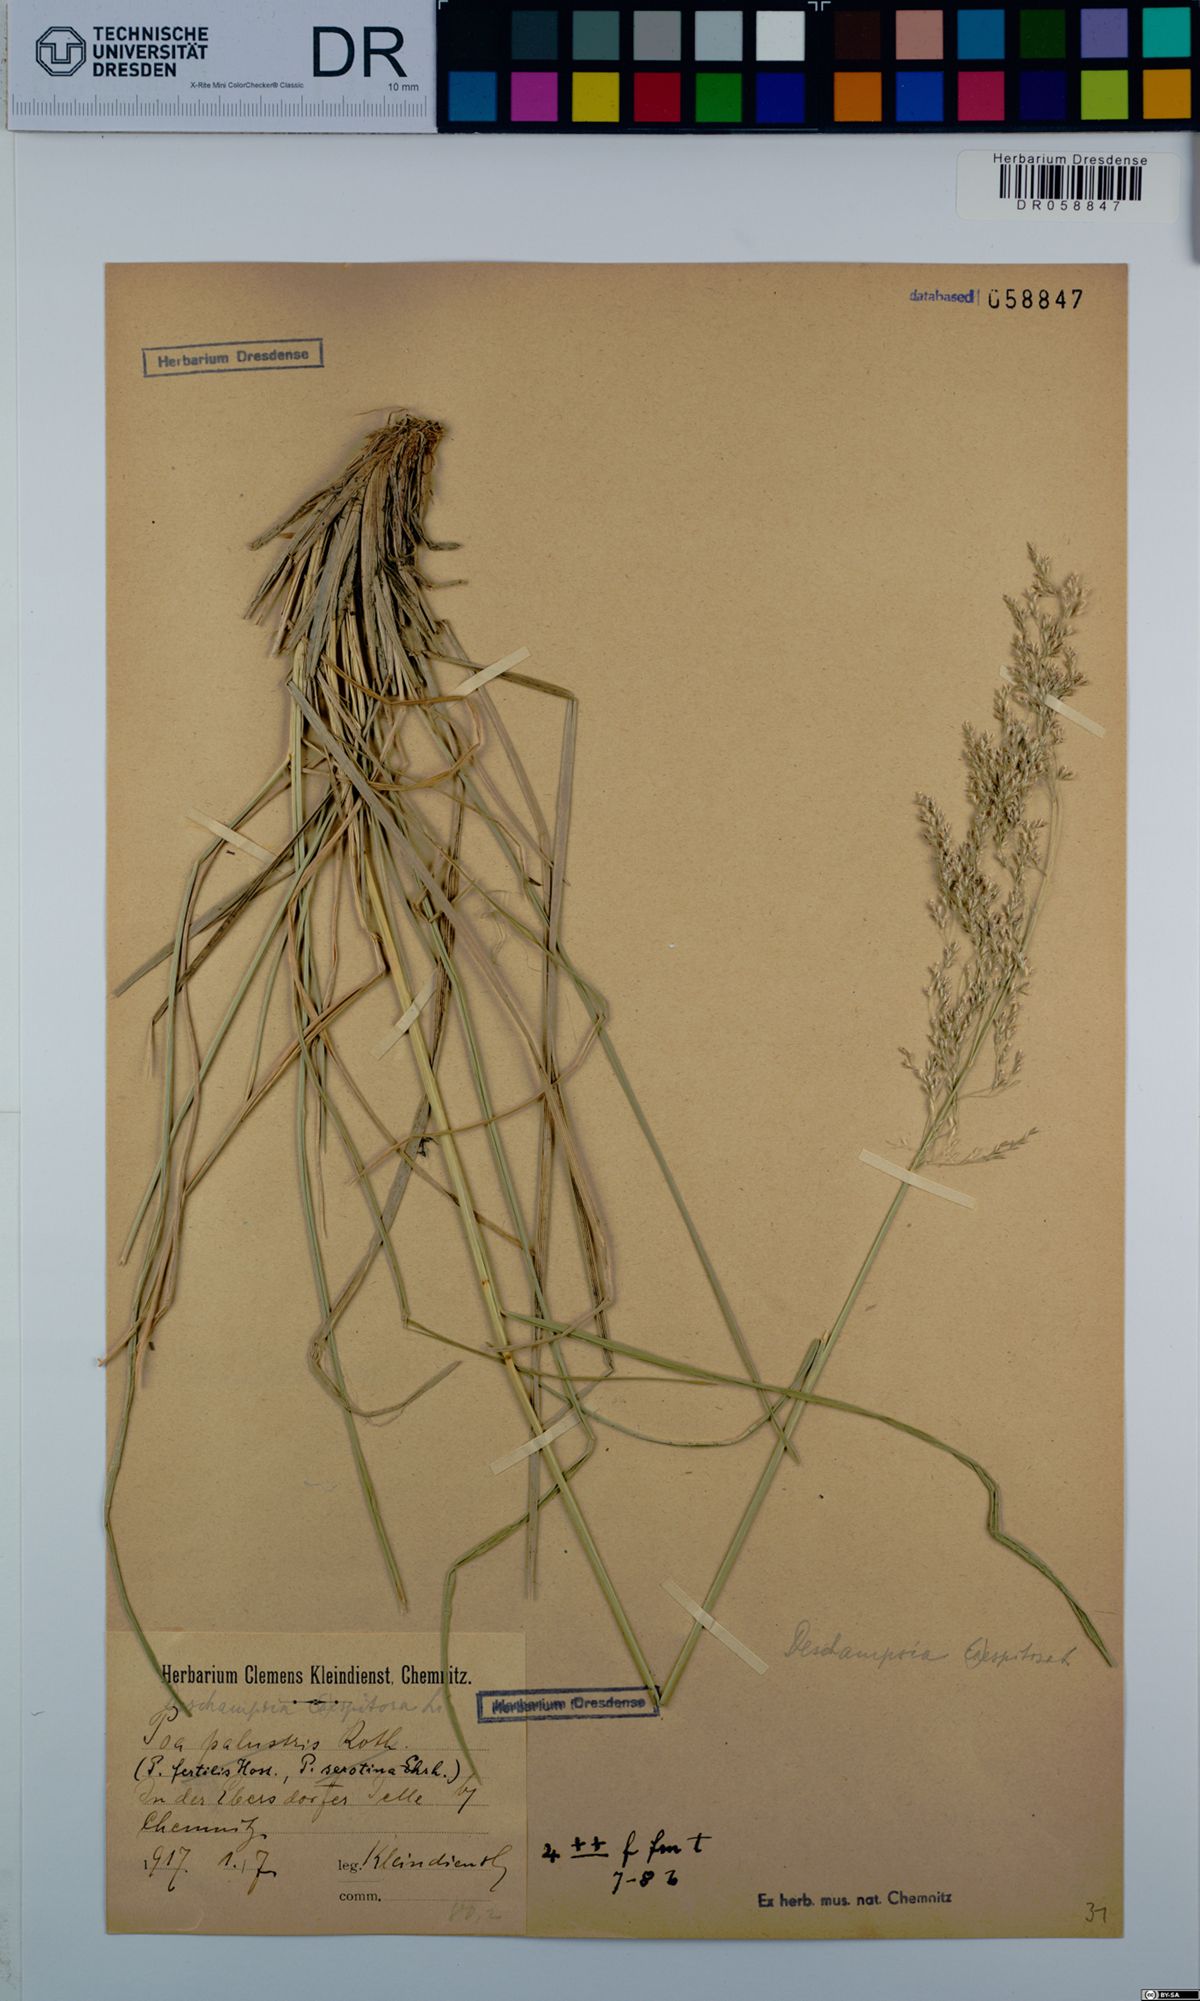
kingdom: Plantae
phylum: Tracheophyta
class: Liliopsida
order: Poales
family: Poaceae
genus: Deschampsia
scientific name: Deschampsia cespitosa
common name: Tufted hair-grass
